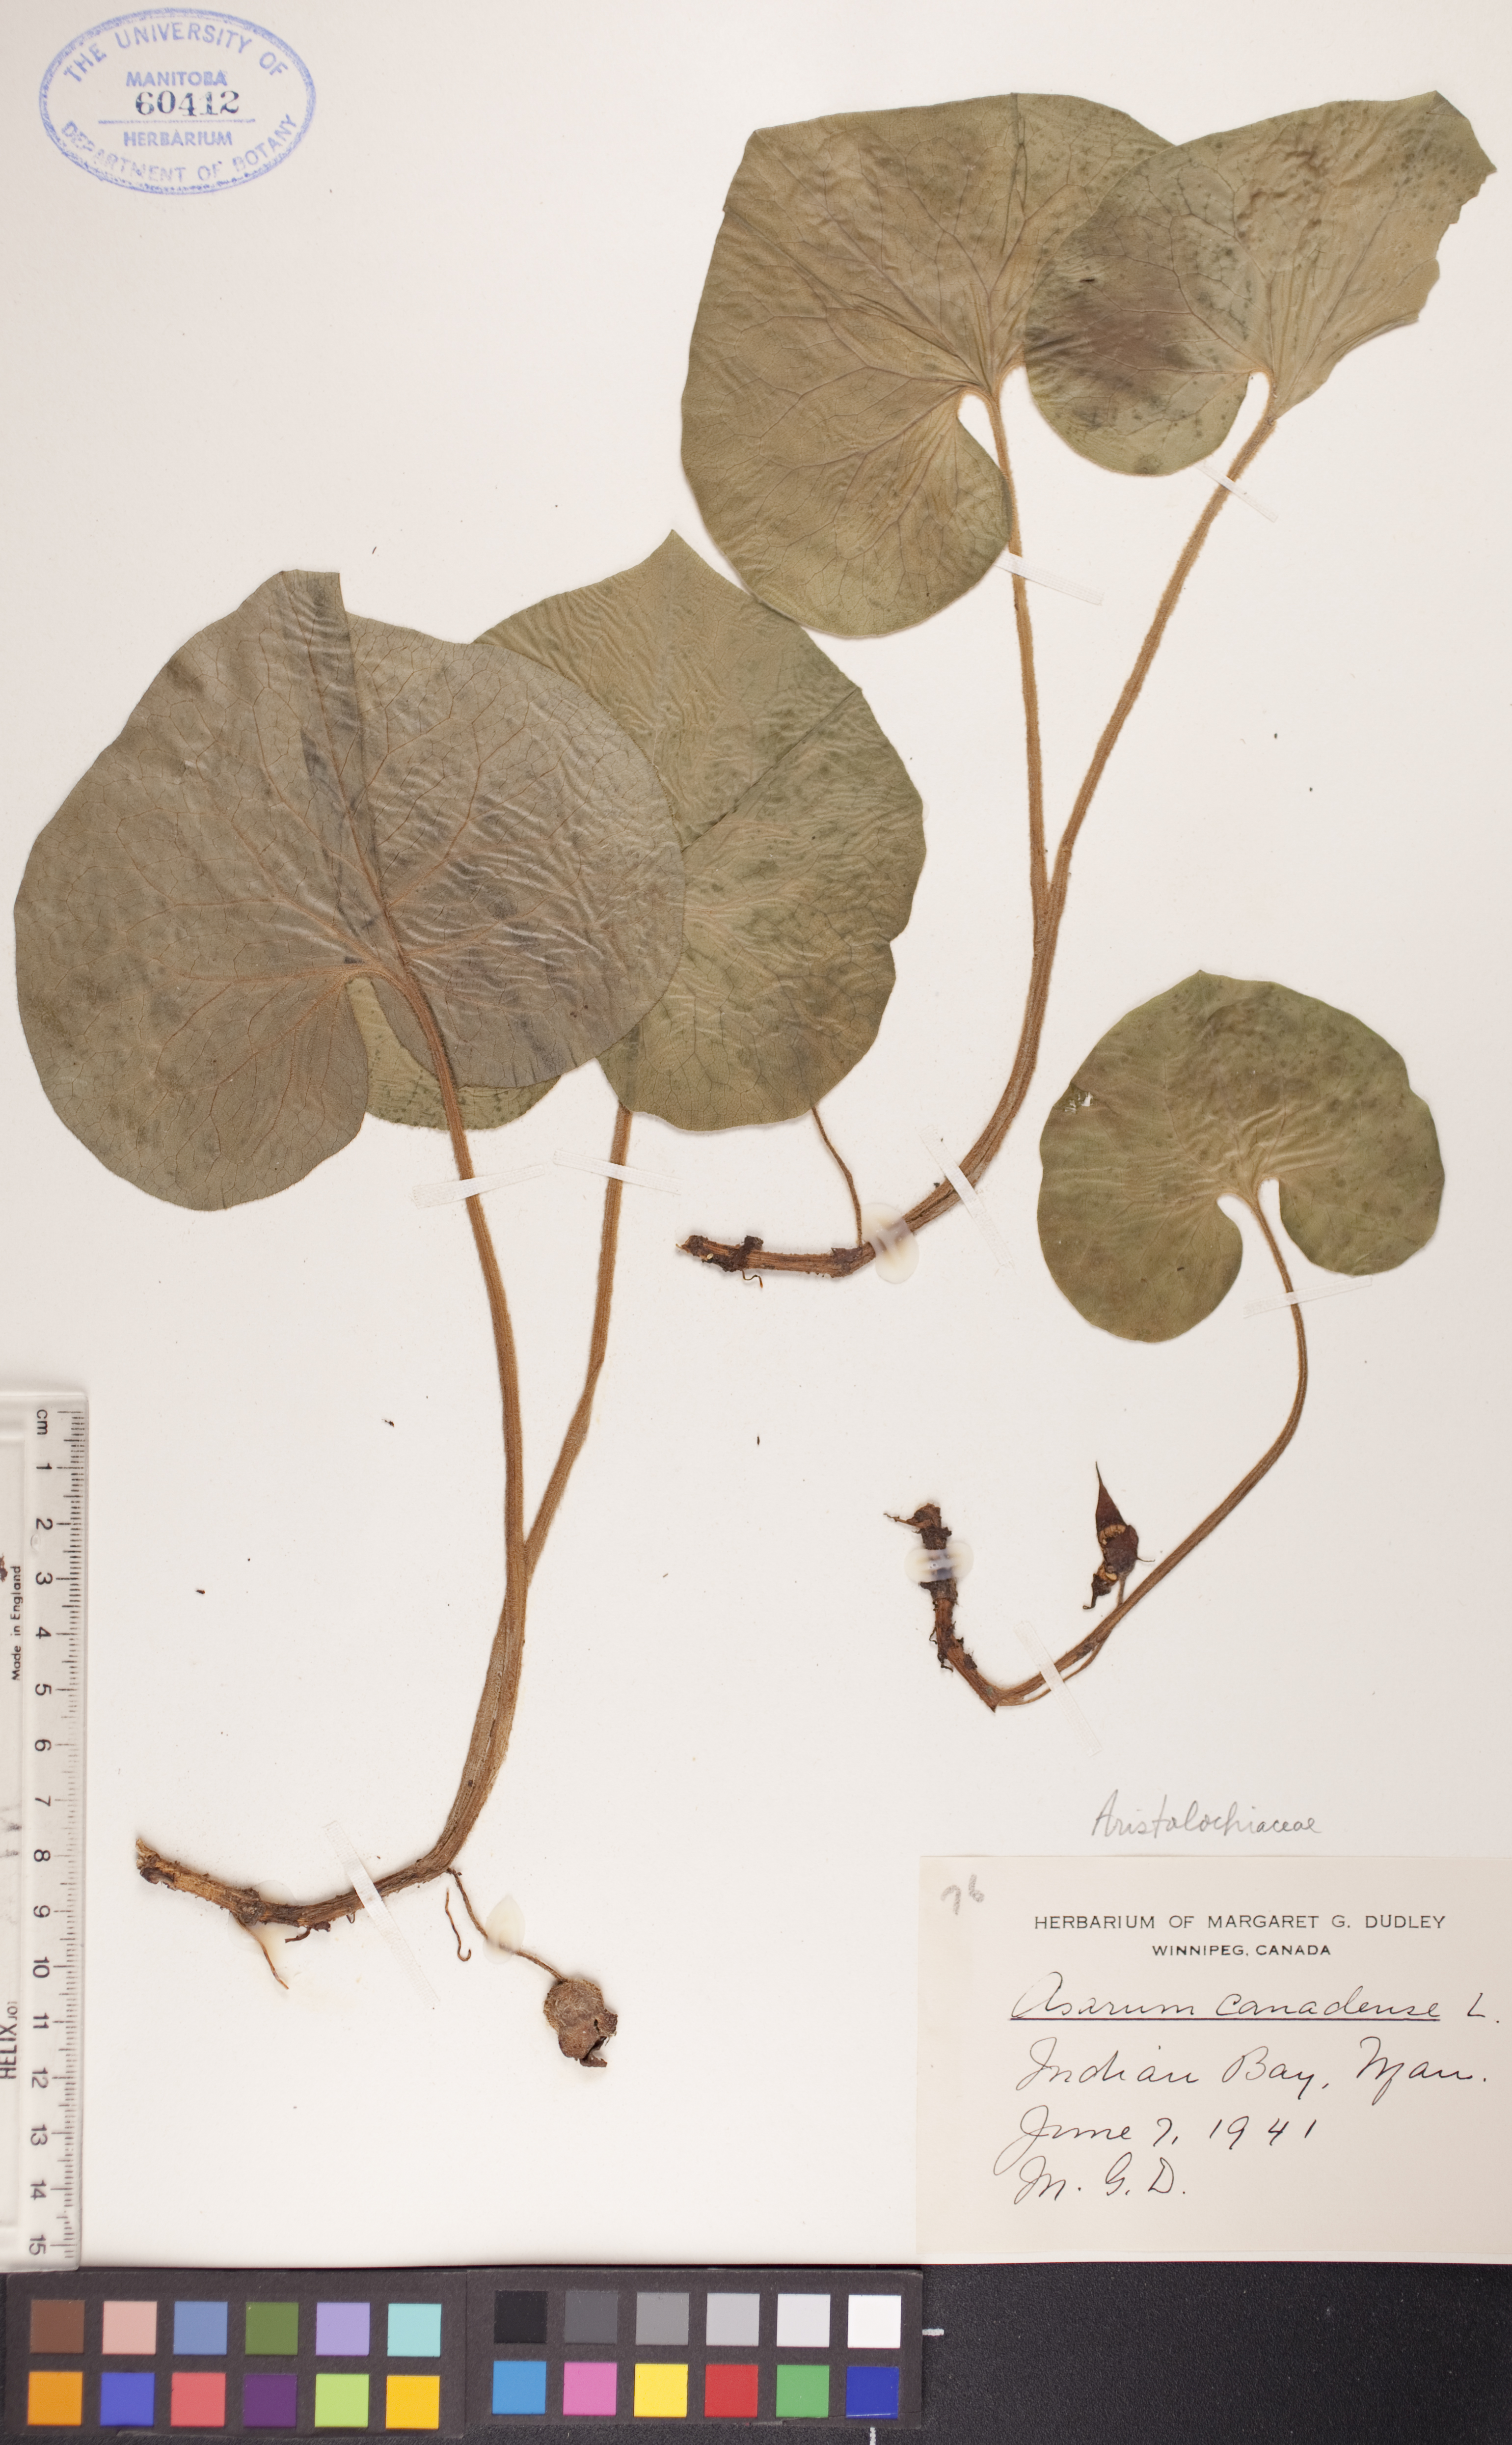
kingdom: Plantae
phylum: Tracheophyta
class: Magnoliopsida
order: Piperales
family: Aristolochiaceae
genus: Asarum
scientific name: Asarum canadense
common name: Wild ginger
